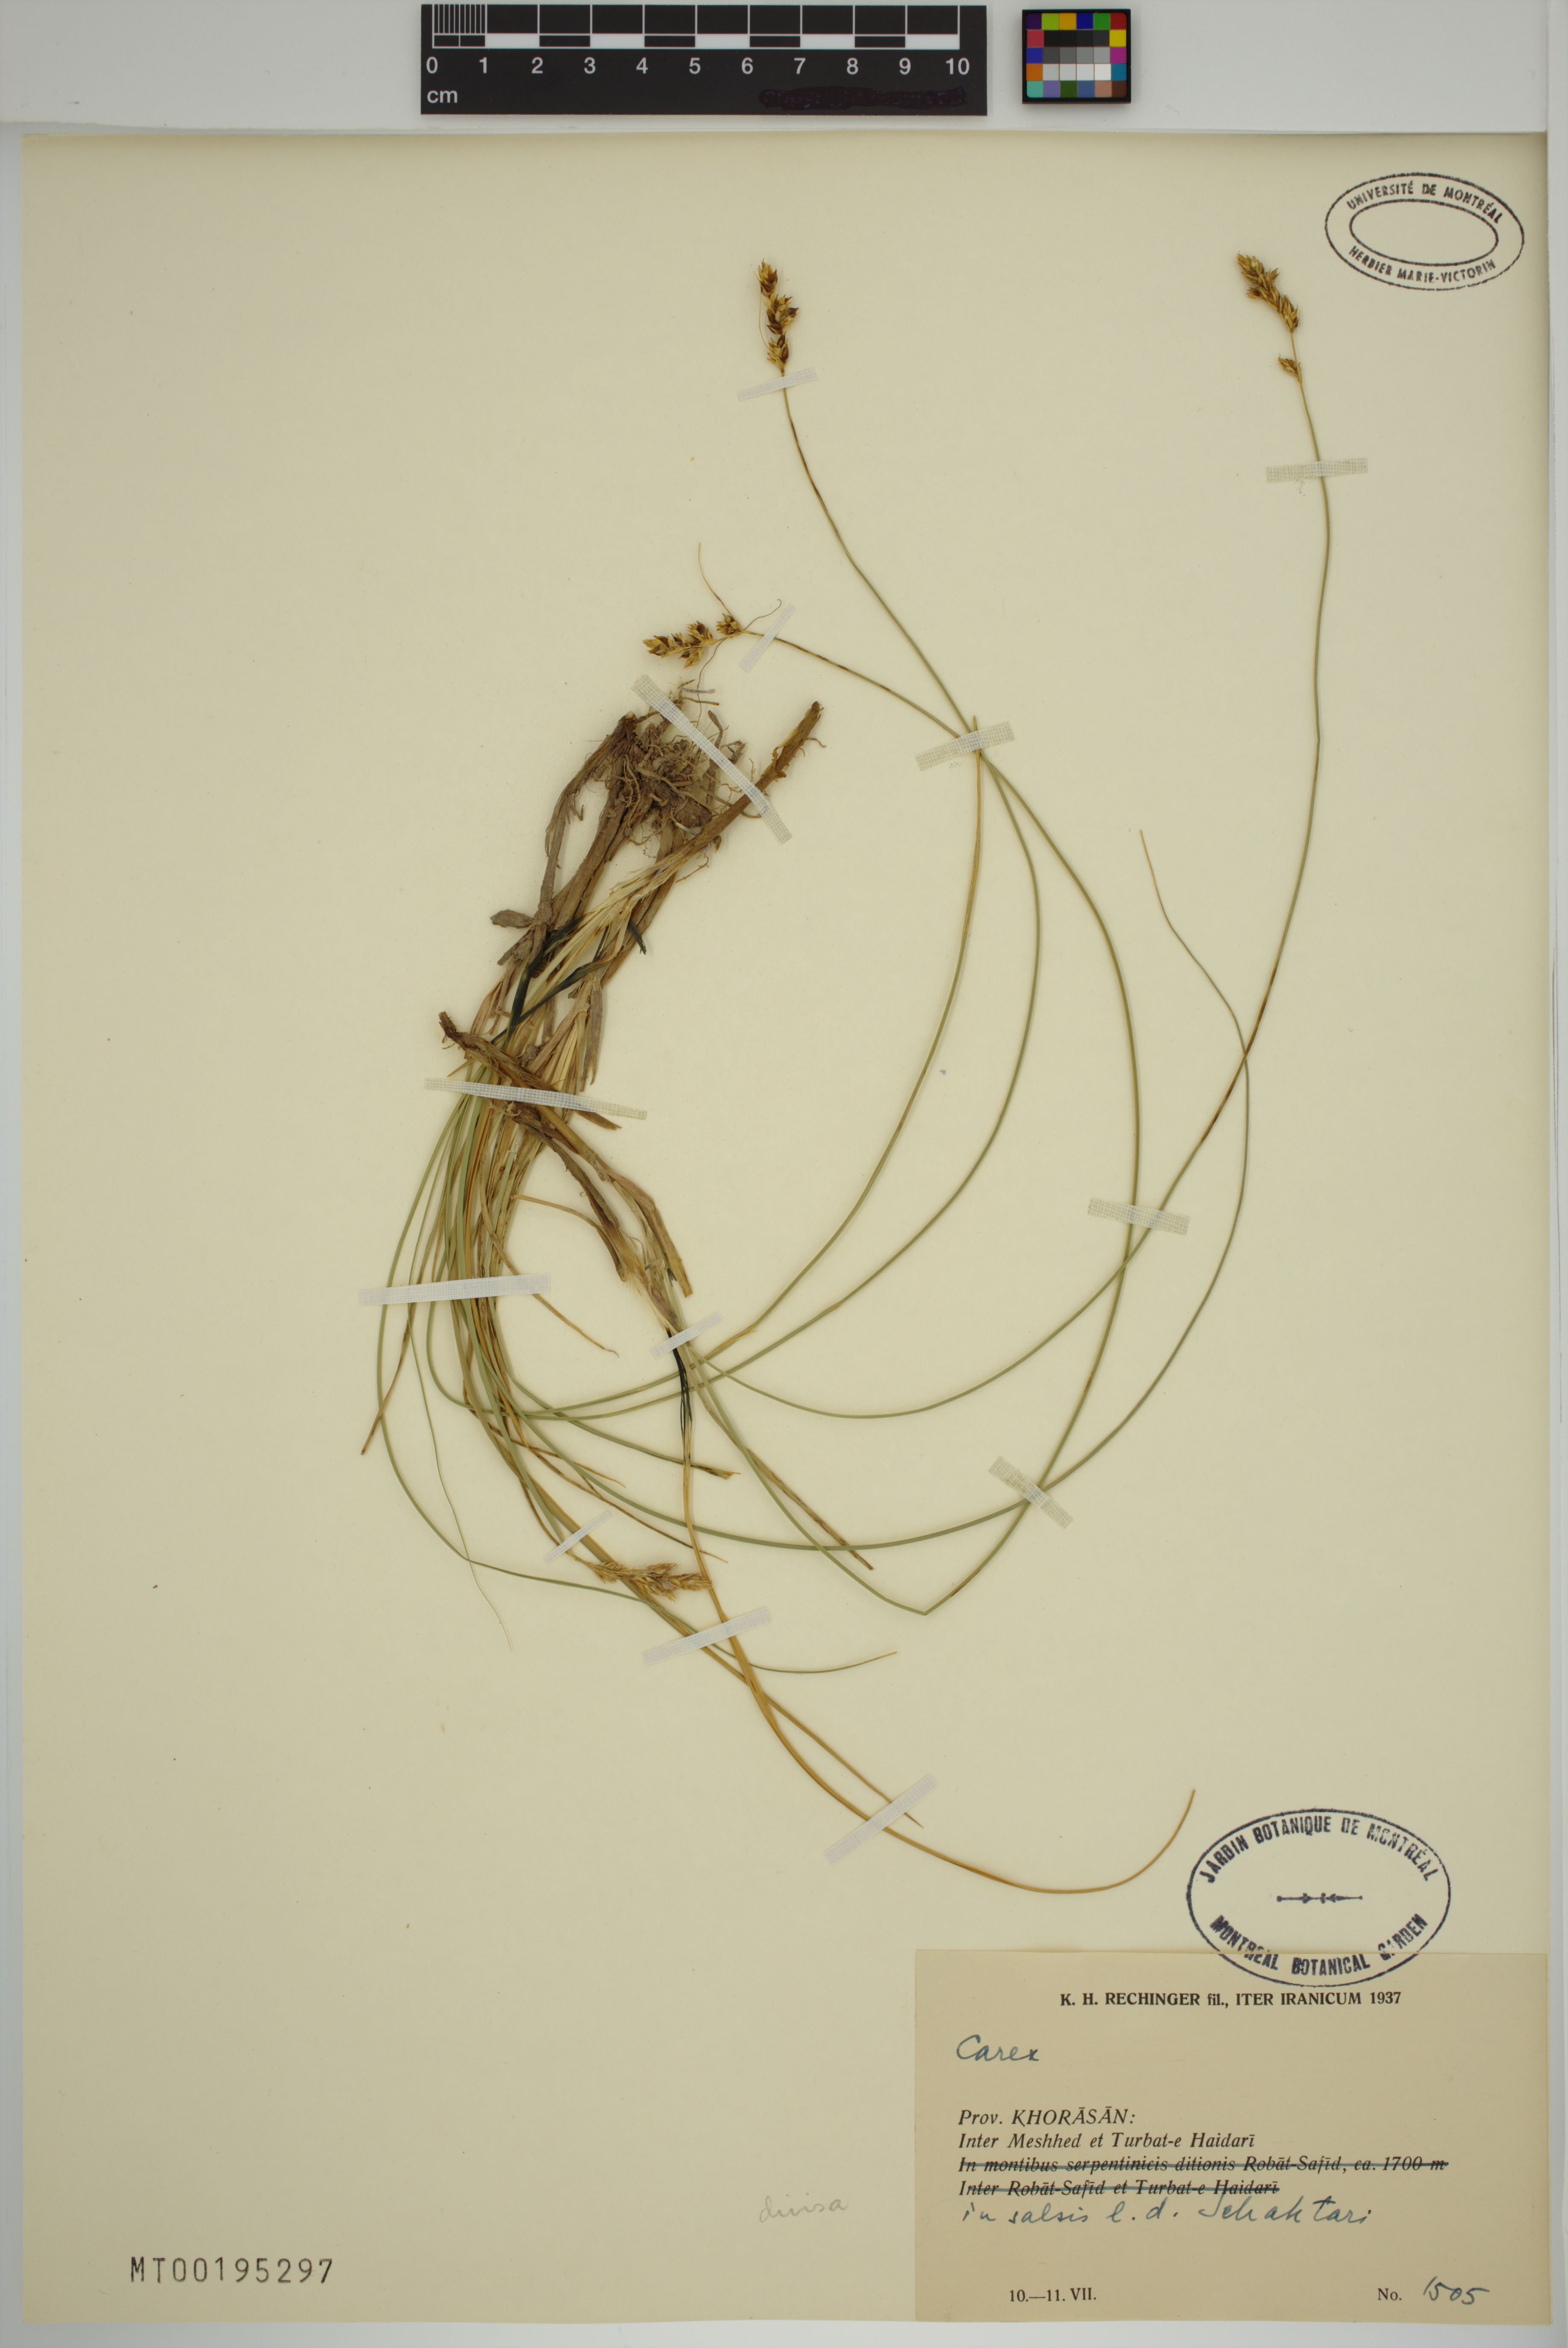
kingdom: Plantae
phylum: Tracheophyta
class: Liliopsida
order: Poales
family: Cyperaceae
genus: Carex
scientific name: Carex divisa
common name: Divided sedge
